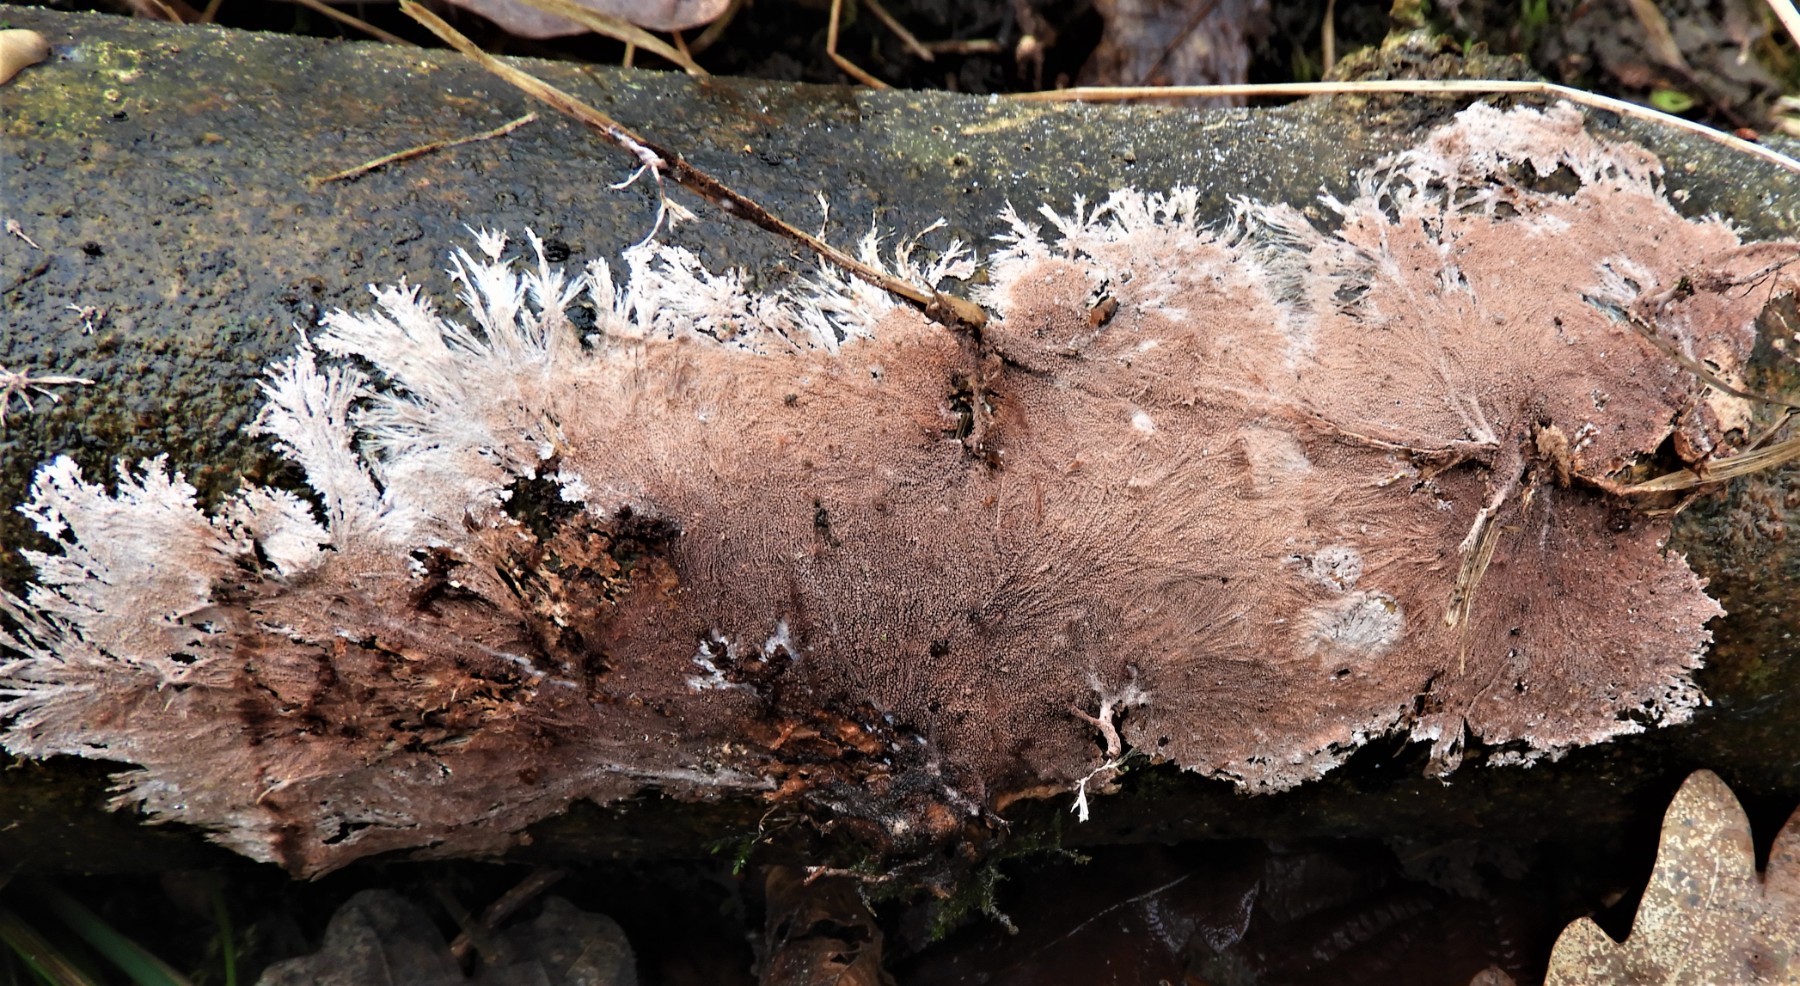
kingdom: Fungi
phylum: Basidiomycota
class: Agaricomycetes
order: Polyporales
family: Steccherinaceae
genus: Steccherinum
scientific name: Steccherinum fimbriatum
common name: trådet skønpig
